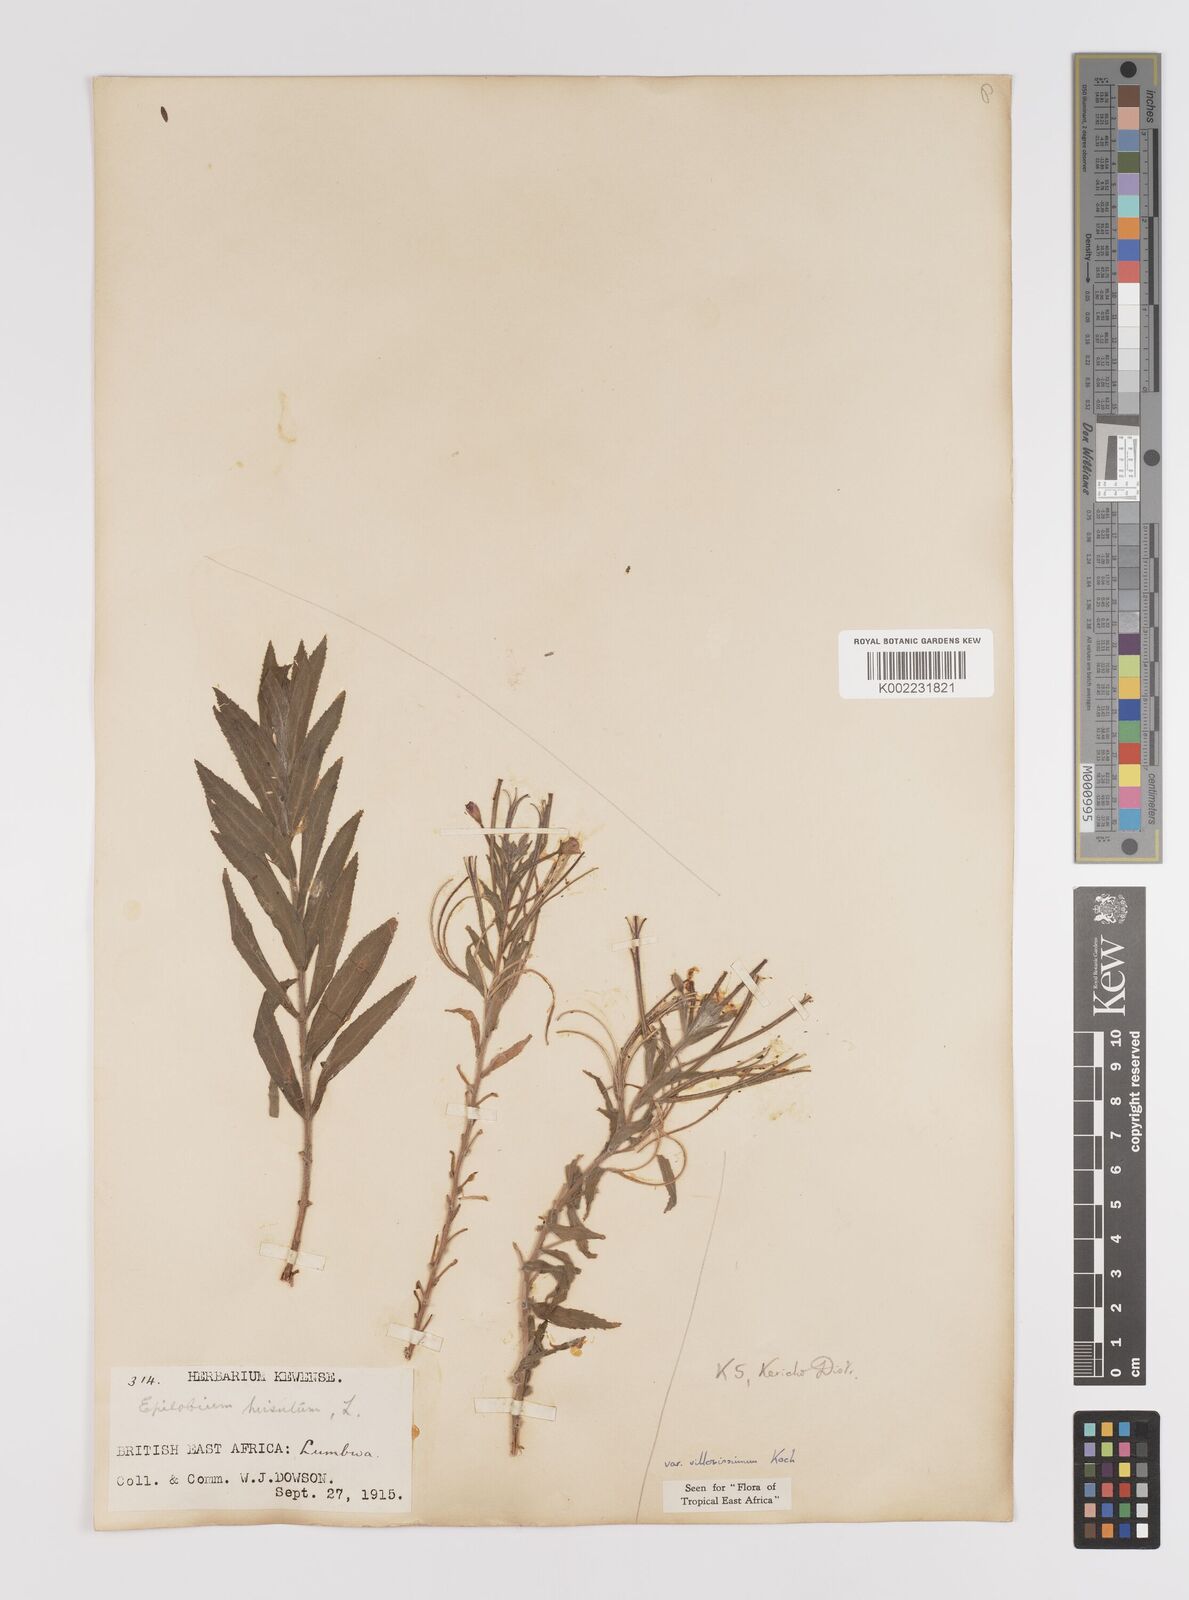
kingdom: Plantae
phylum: Tracheophyta
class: Magnoliopsida
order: Myrtales
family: Onagraceae
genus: Epilobium
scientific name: Epilobium hirsutum
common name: Great willowherb
